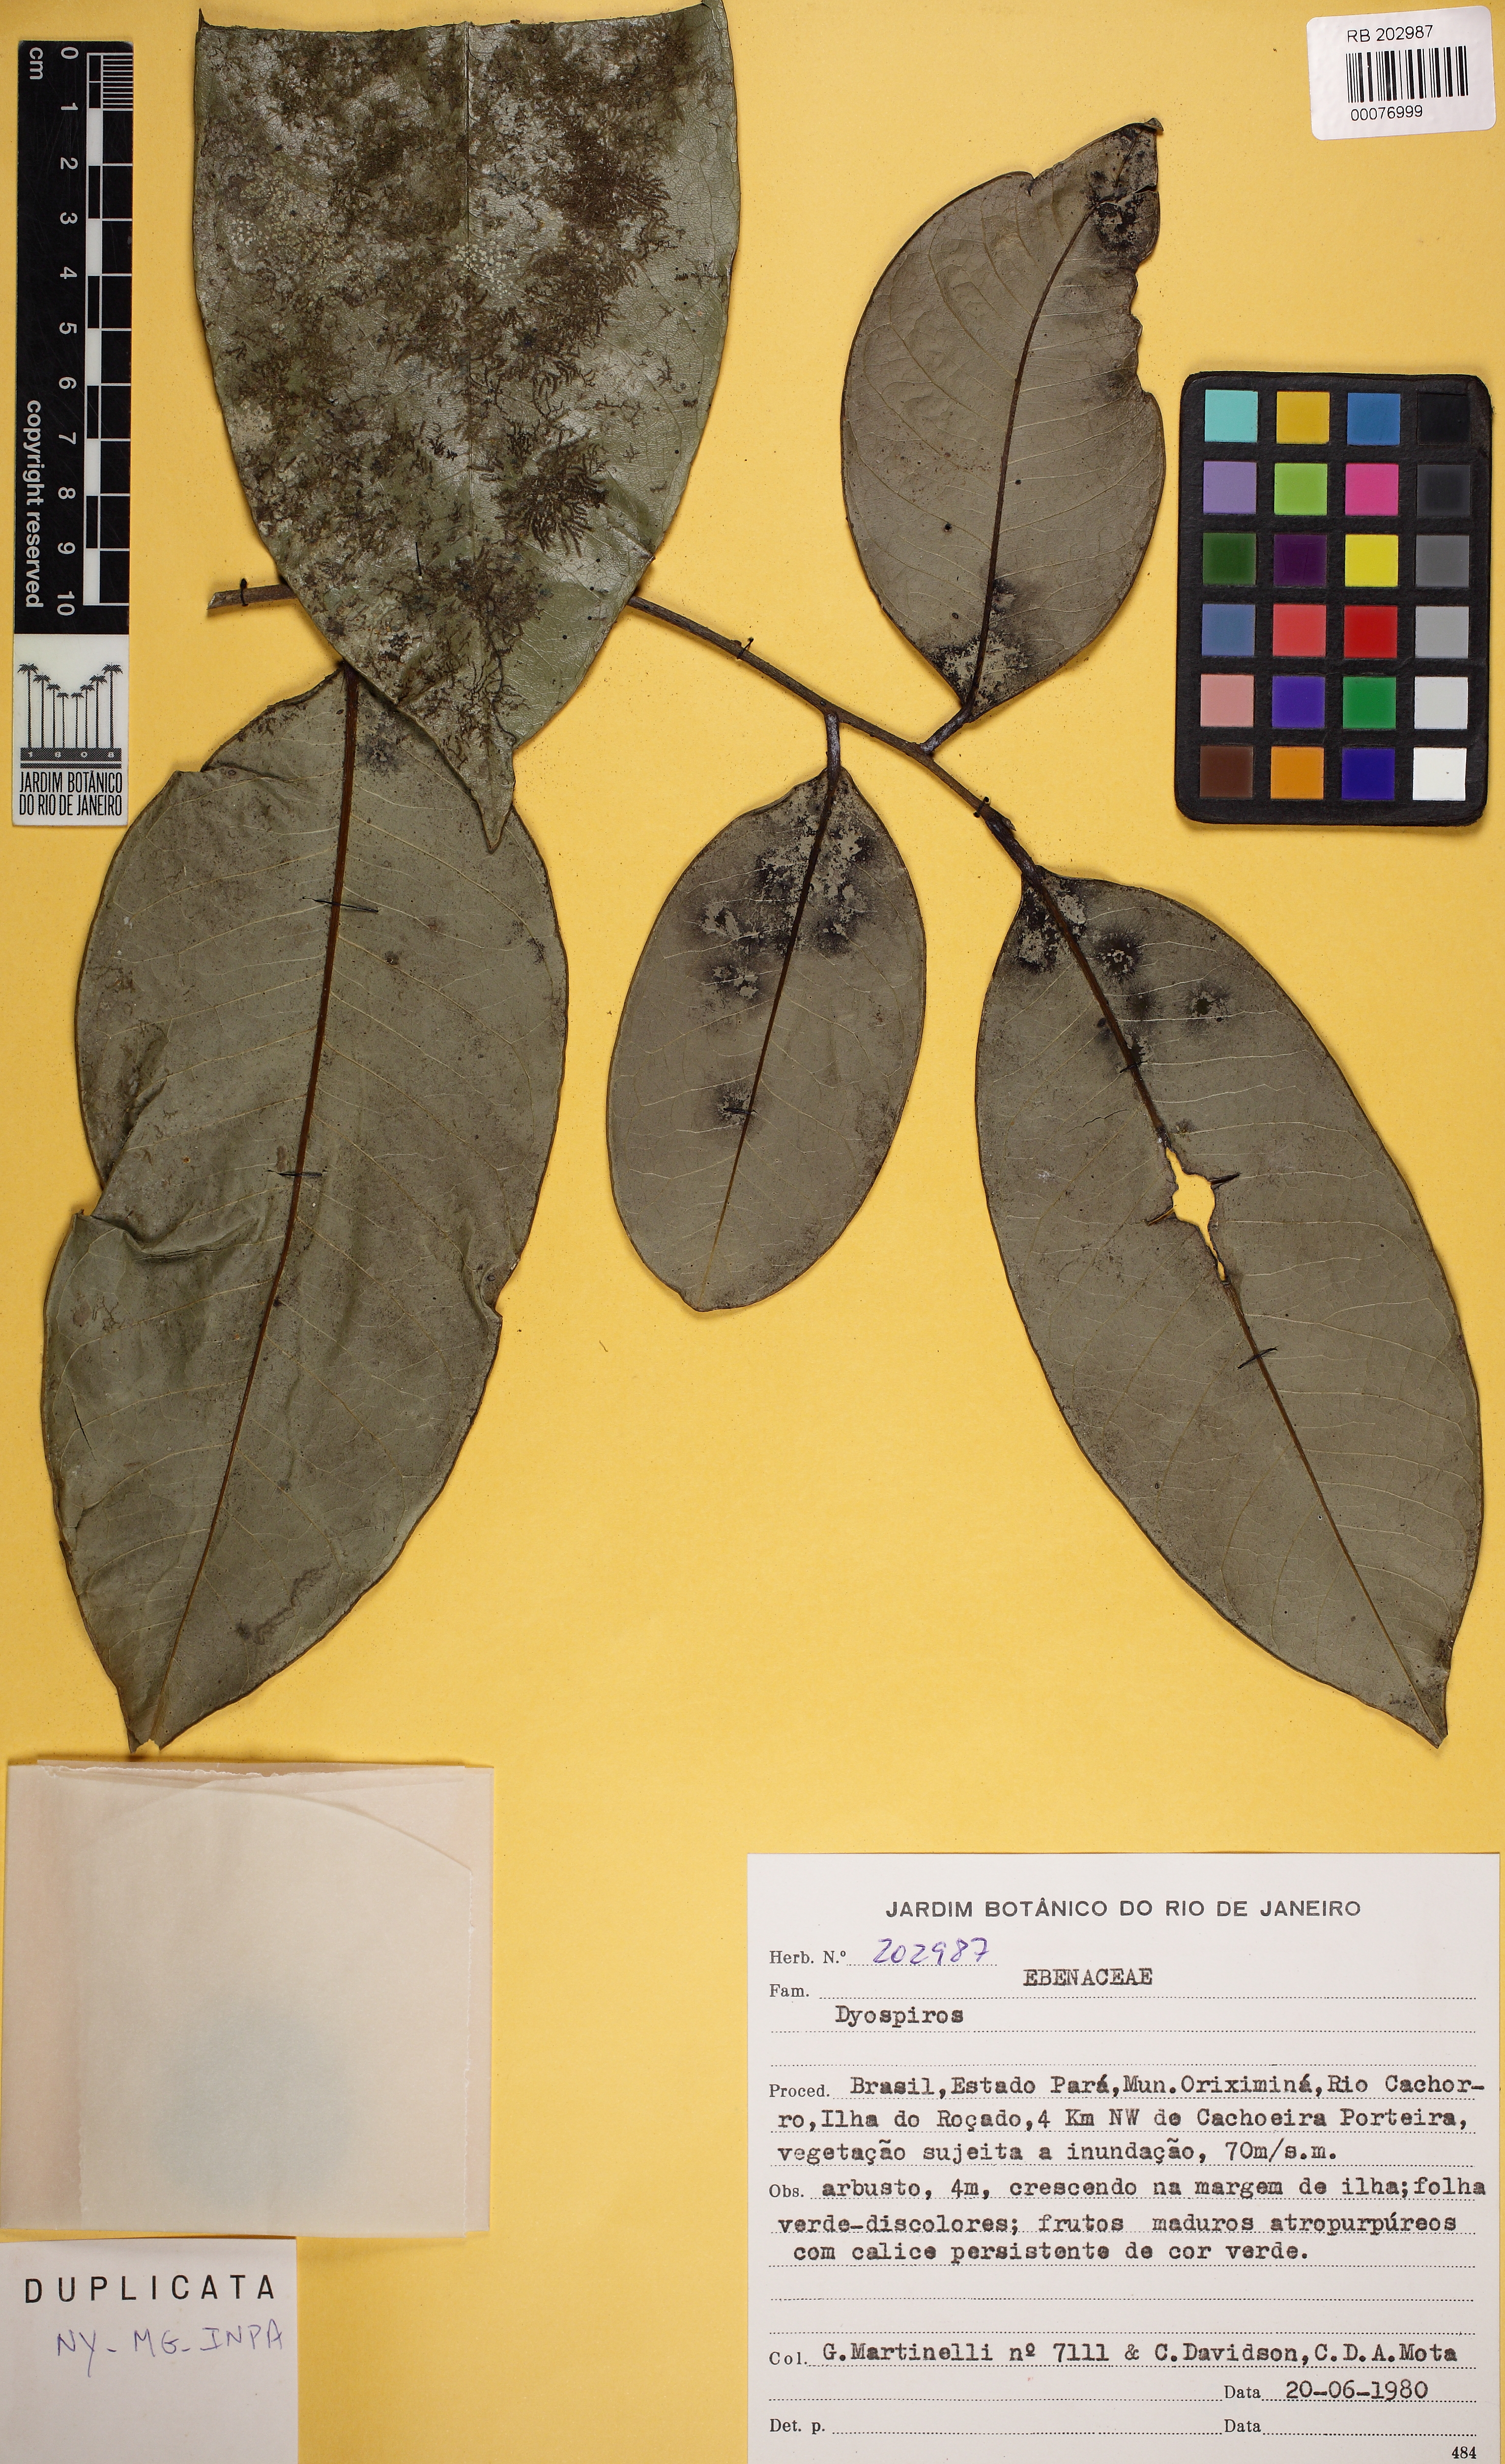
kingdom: Plantae
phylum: Tracheophyta
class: Magnoliopsida
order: Ericales
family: Ebenaceae
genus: Diospyros
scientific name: Diospyros
